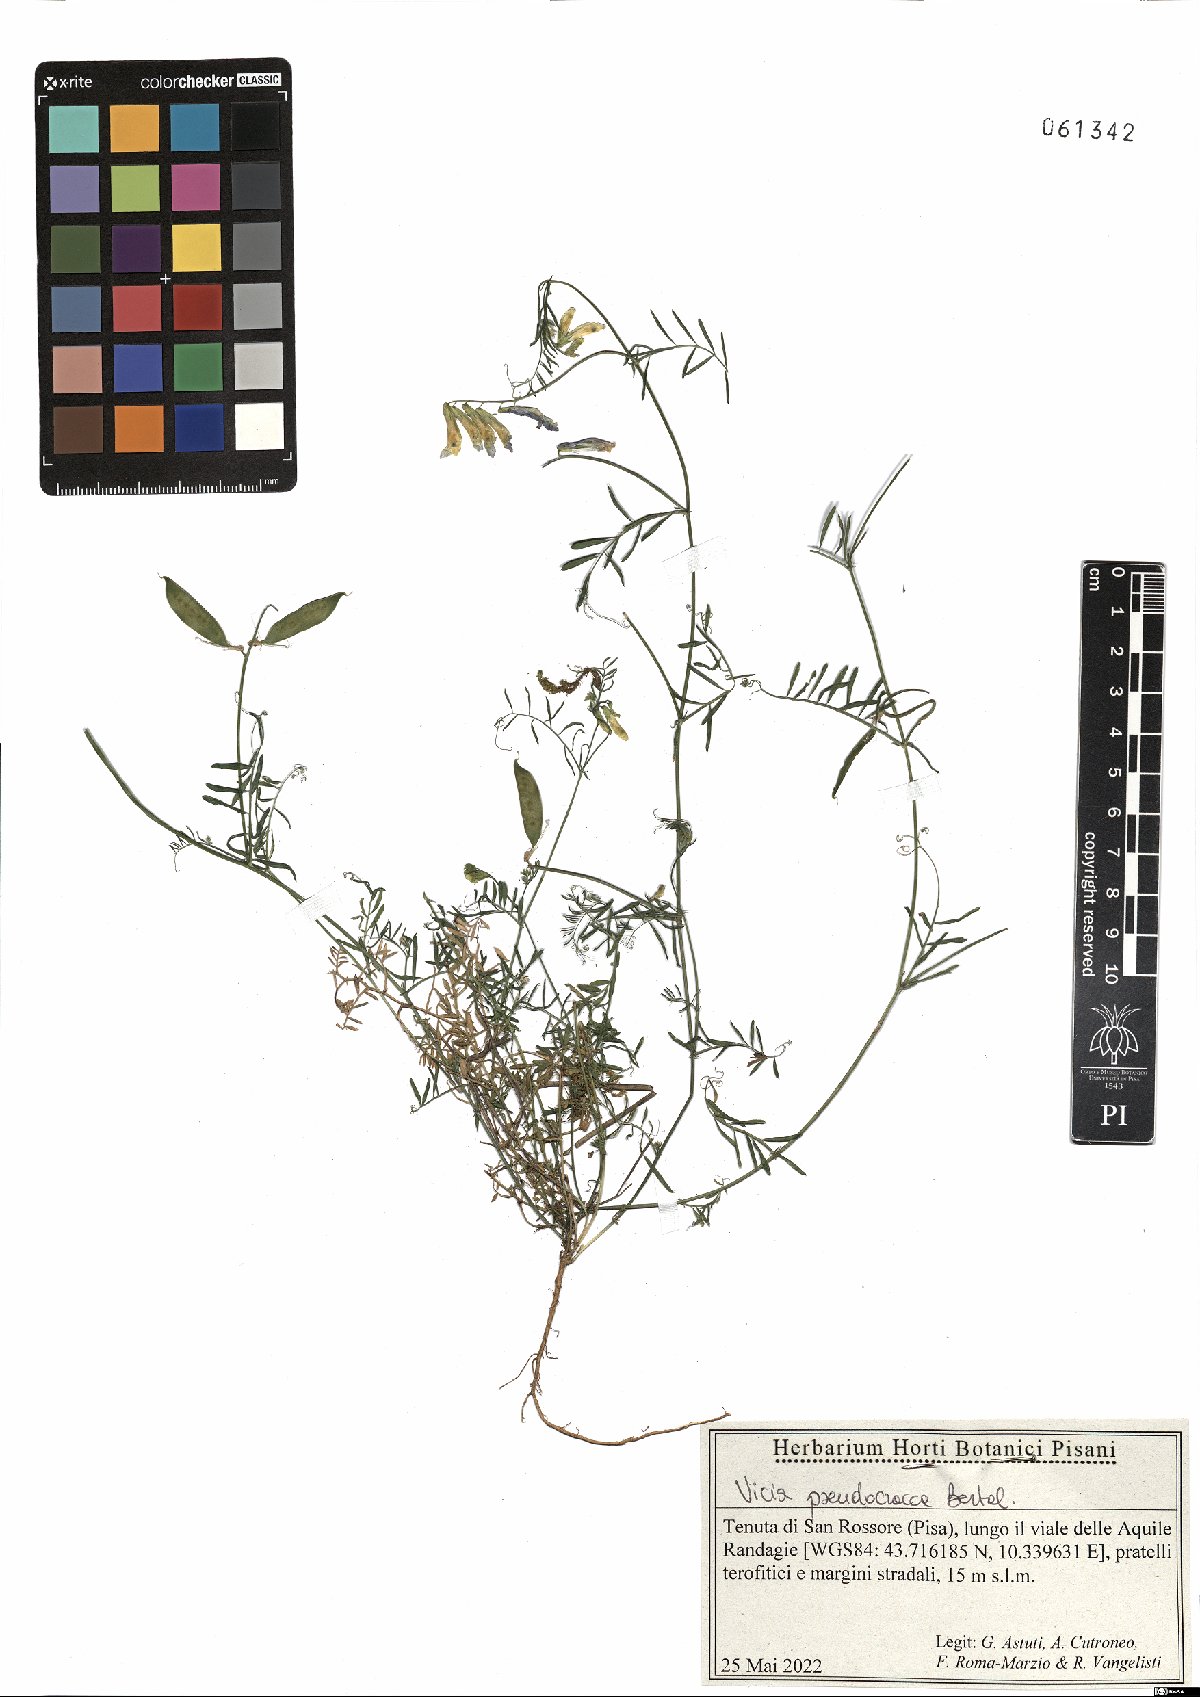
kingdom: Plantae
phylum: Tracheophyta
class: Magnoliopsida
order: Fabales
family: Fabaceae
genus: Vicia
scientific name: Vicia villosa
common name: Fodder vetch
